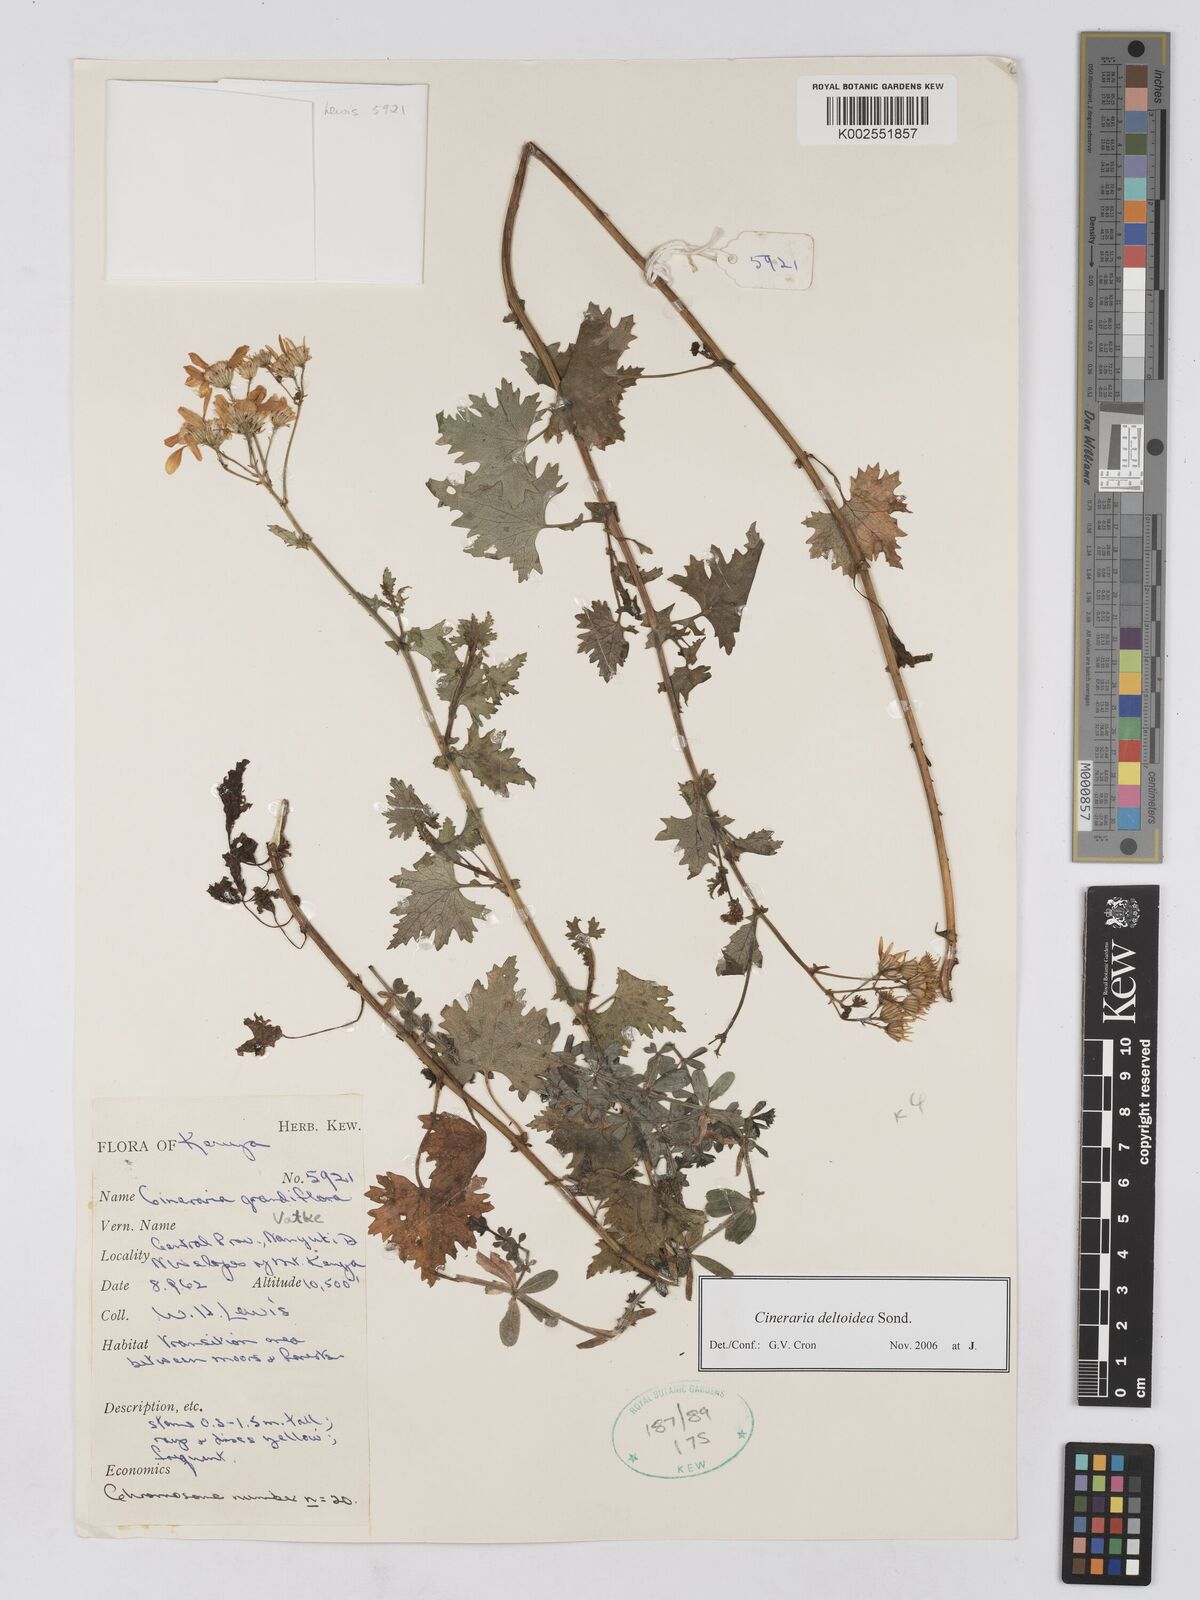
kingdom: Plantae
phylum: Tracheophyta
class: Magnoliopsida
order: Asterales
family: Asteraceae
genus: Cineraria
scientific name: Cineraria deltoidea
